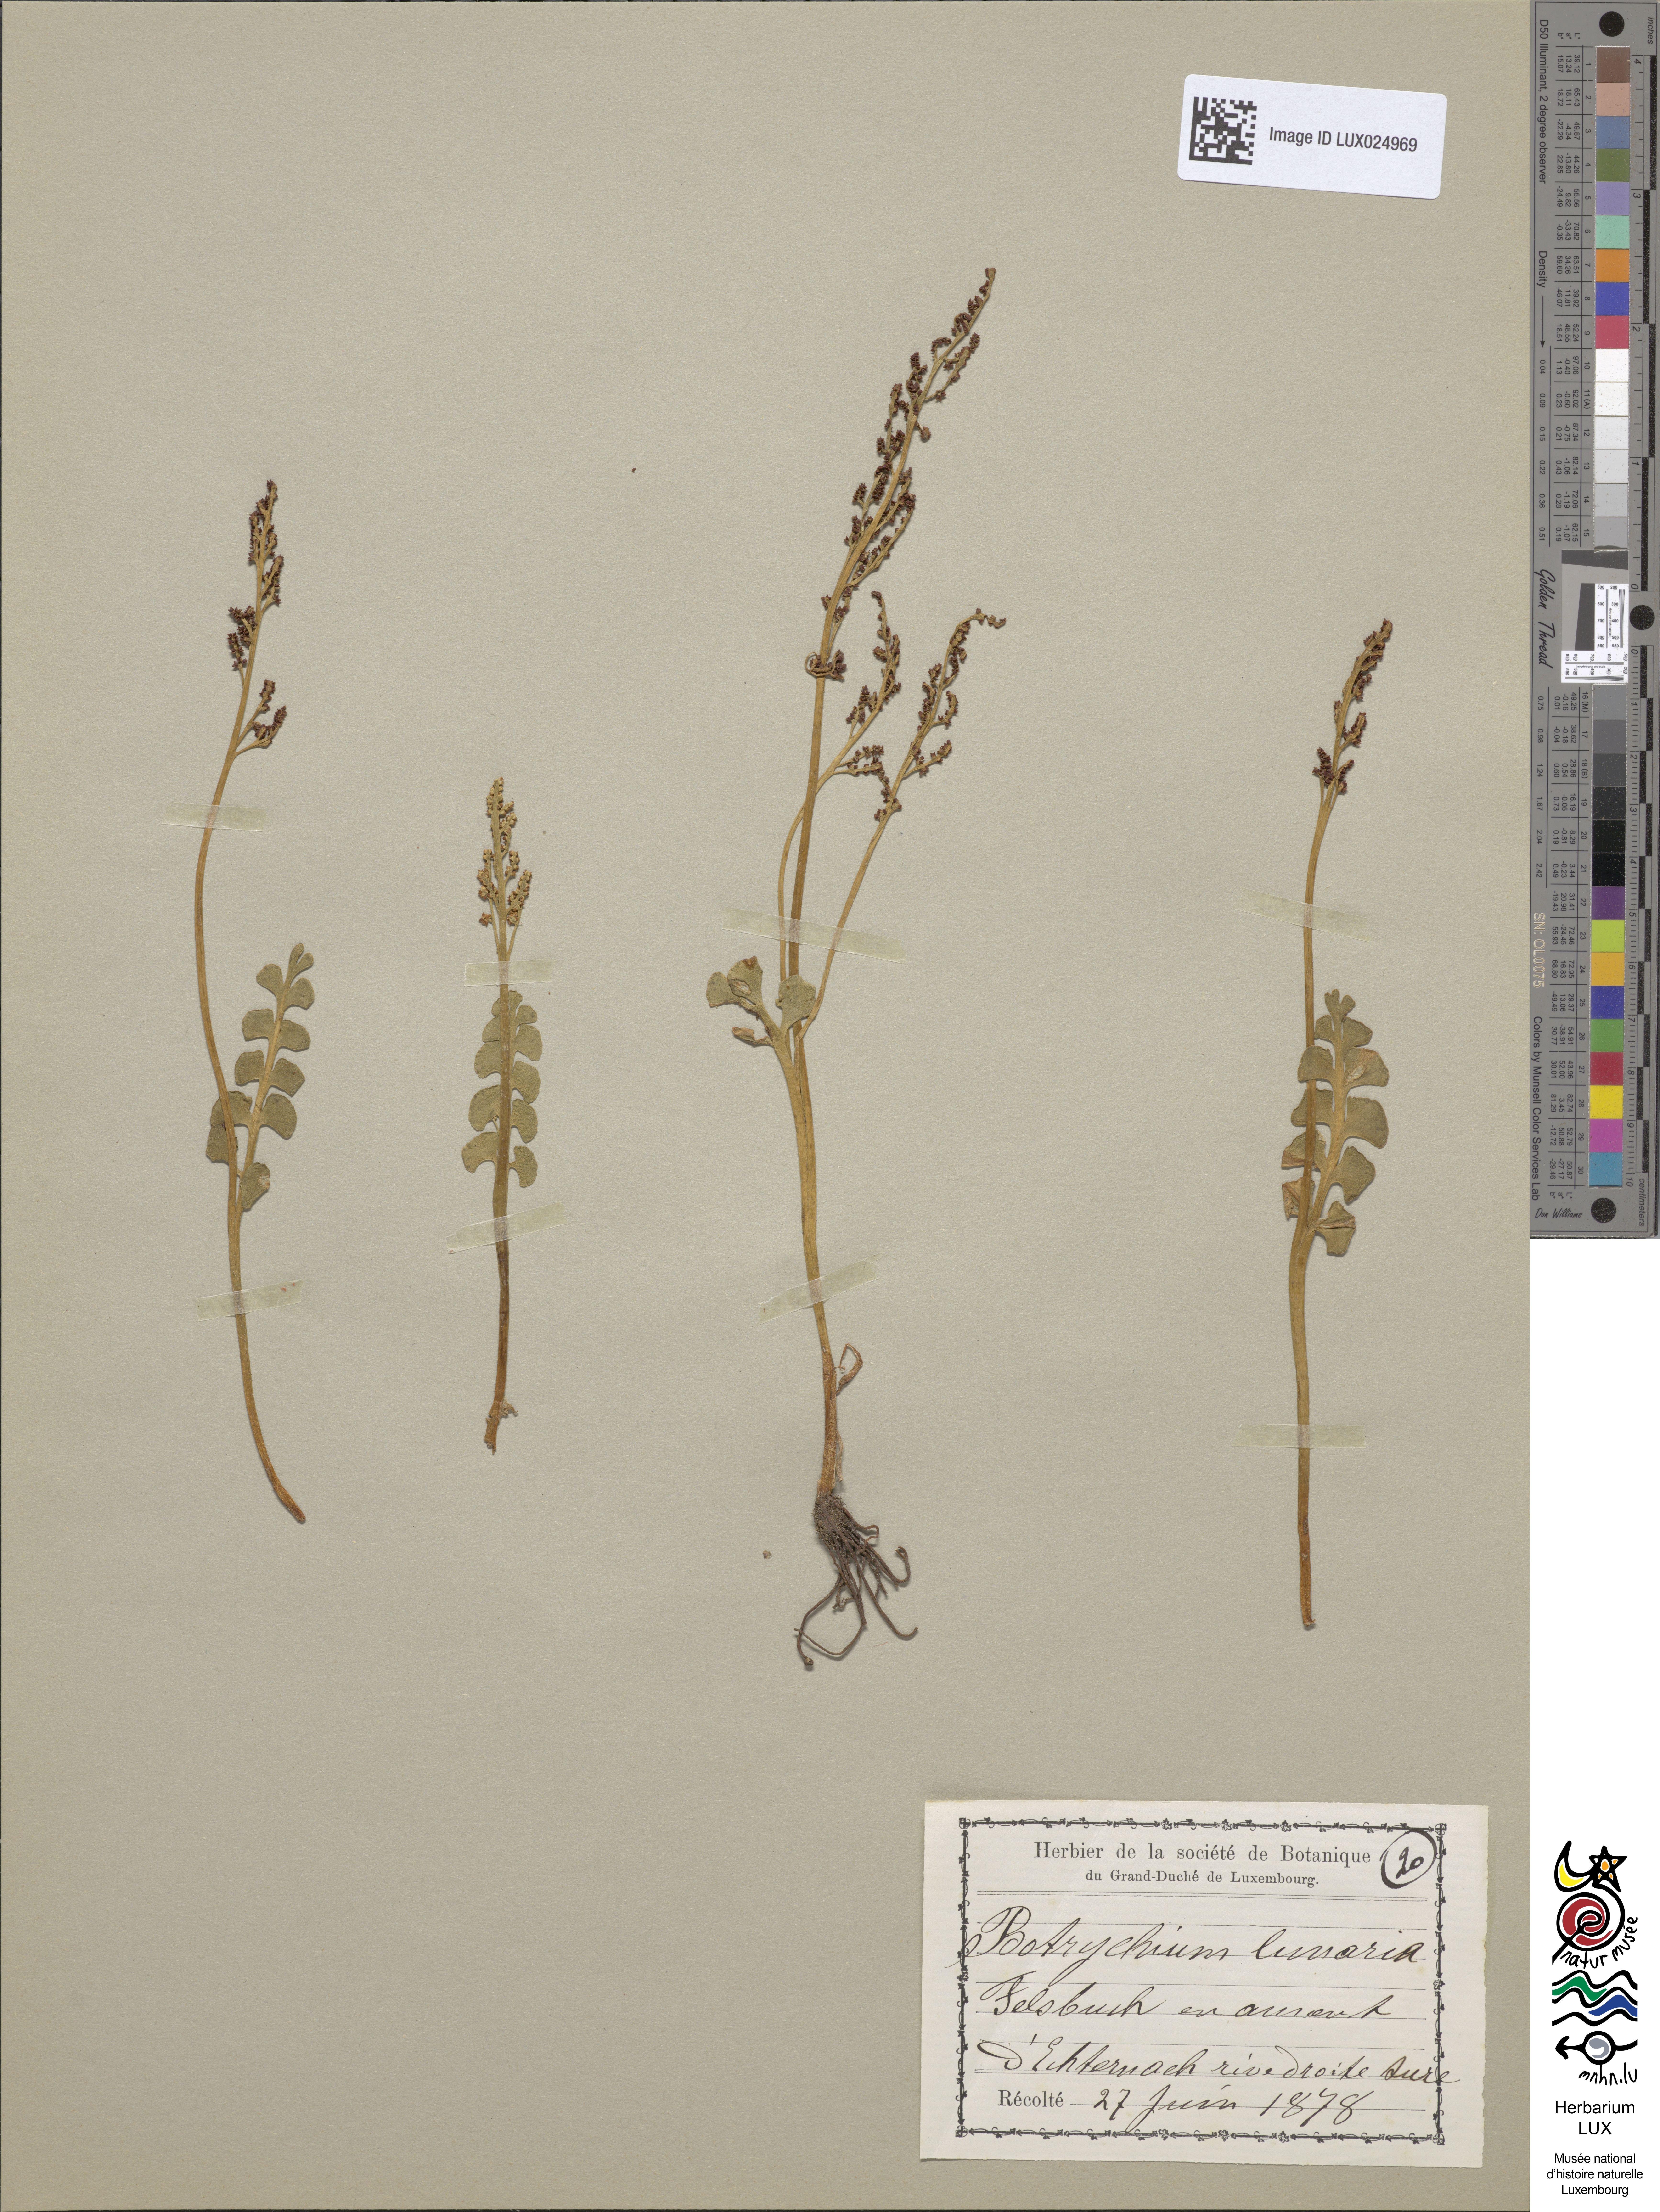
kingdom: Plantae
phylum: Tracheophyta
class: Polypodiopsida
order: Ophioglossales
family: Ophioglossaceae
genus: Botrychium
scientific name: Botrychium lunaria
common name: Moonwort
